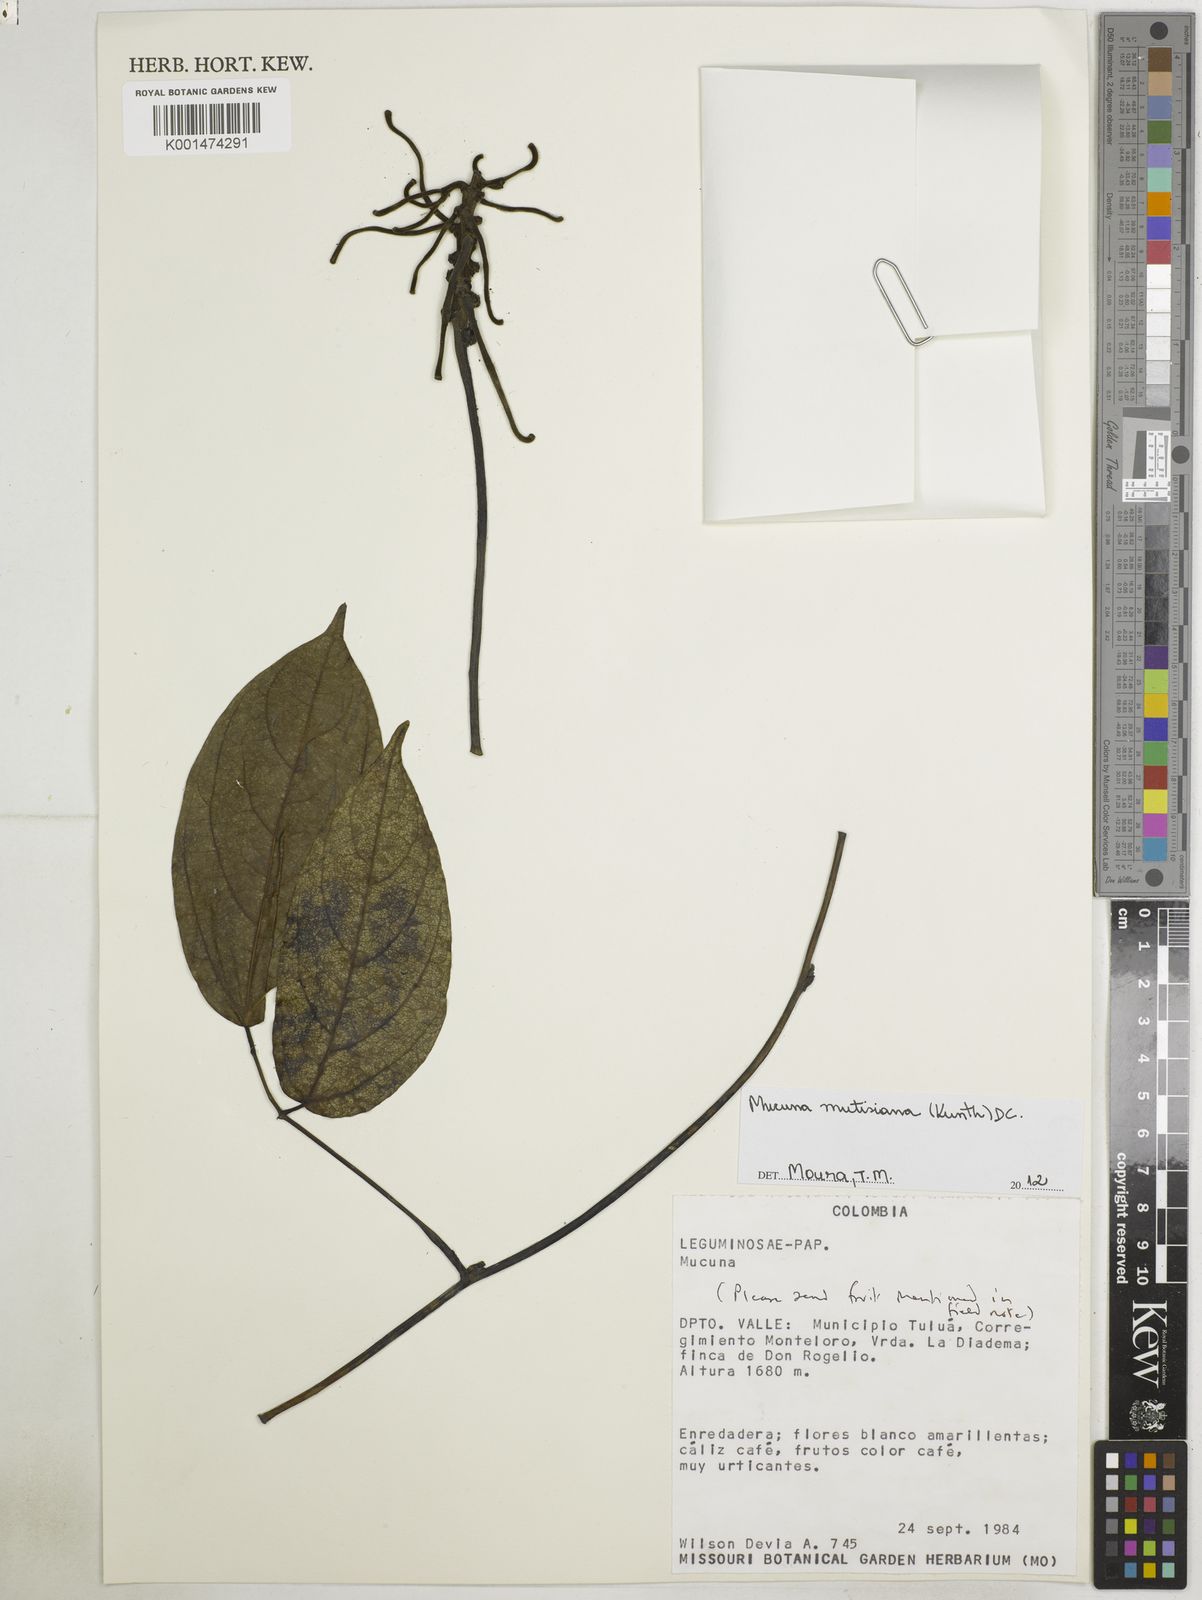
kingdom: Plantae
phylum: Tracheophyta
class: Magnoliopsida
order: Fabales
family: Fabaceae
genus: Mucuna
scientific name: Mucuna mutisiana
